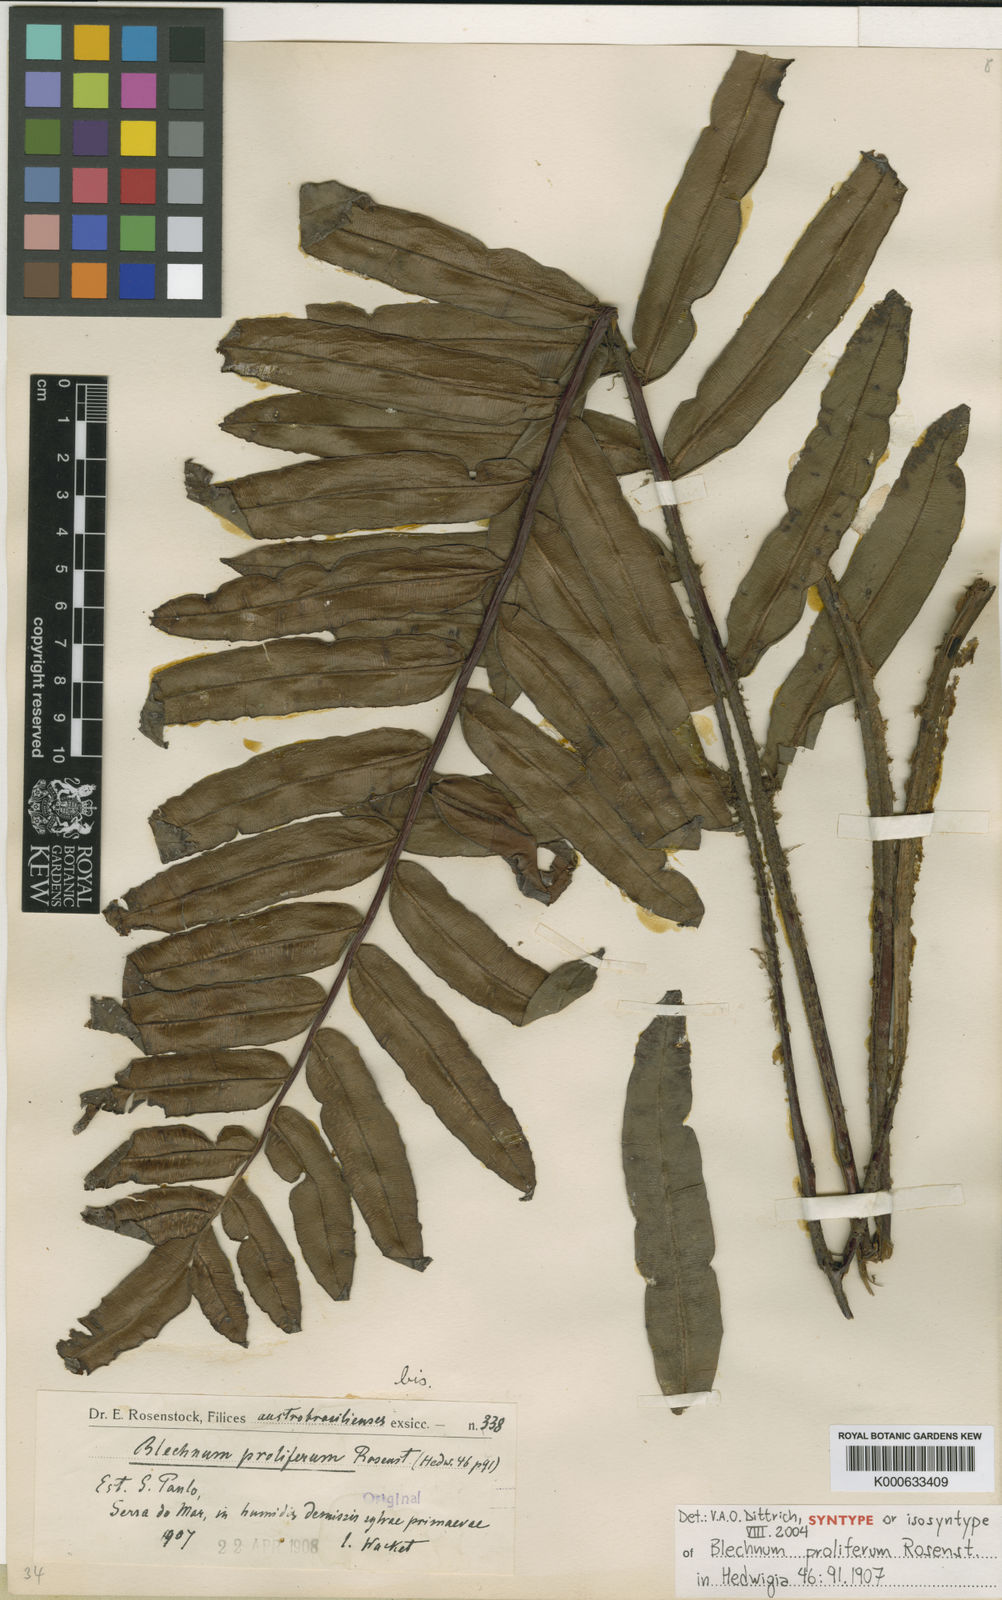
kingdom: Plantae
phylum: Tracheophyta
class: Polypodiopsida
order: Polypodiales
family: Blechnaceae
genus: Parablechnum
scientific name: Parablechnum proliferum
